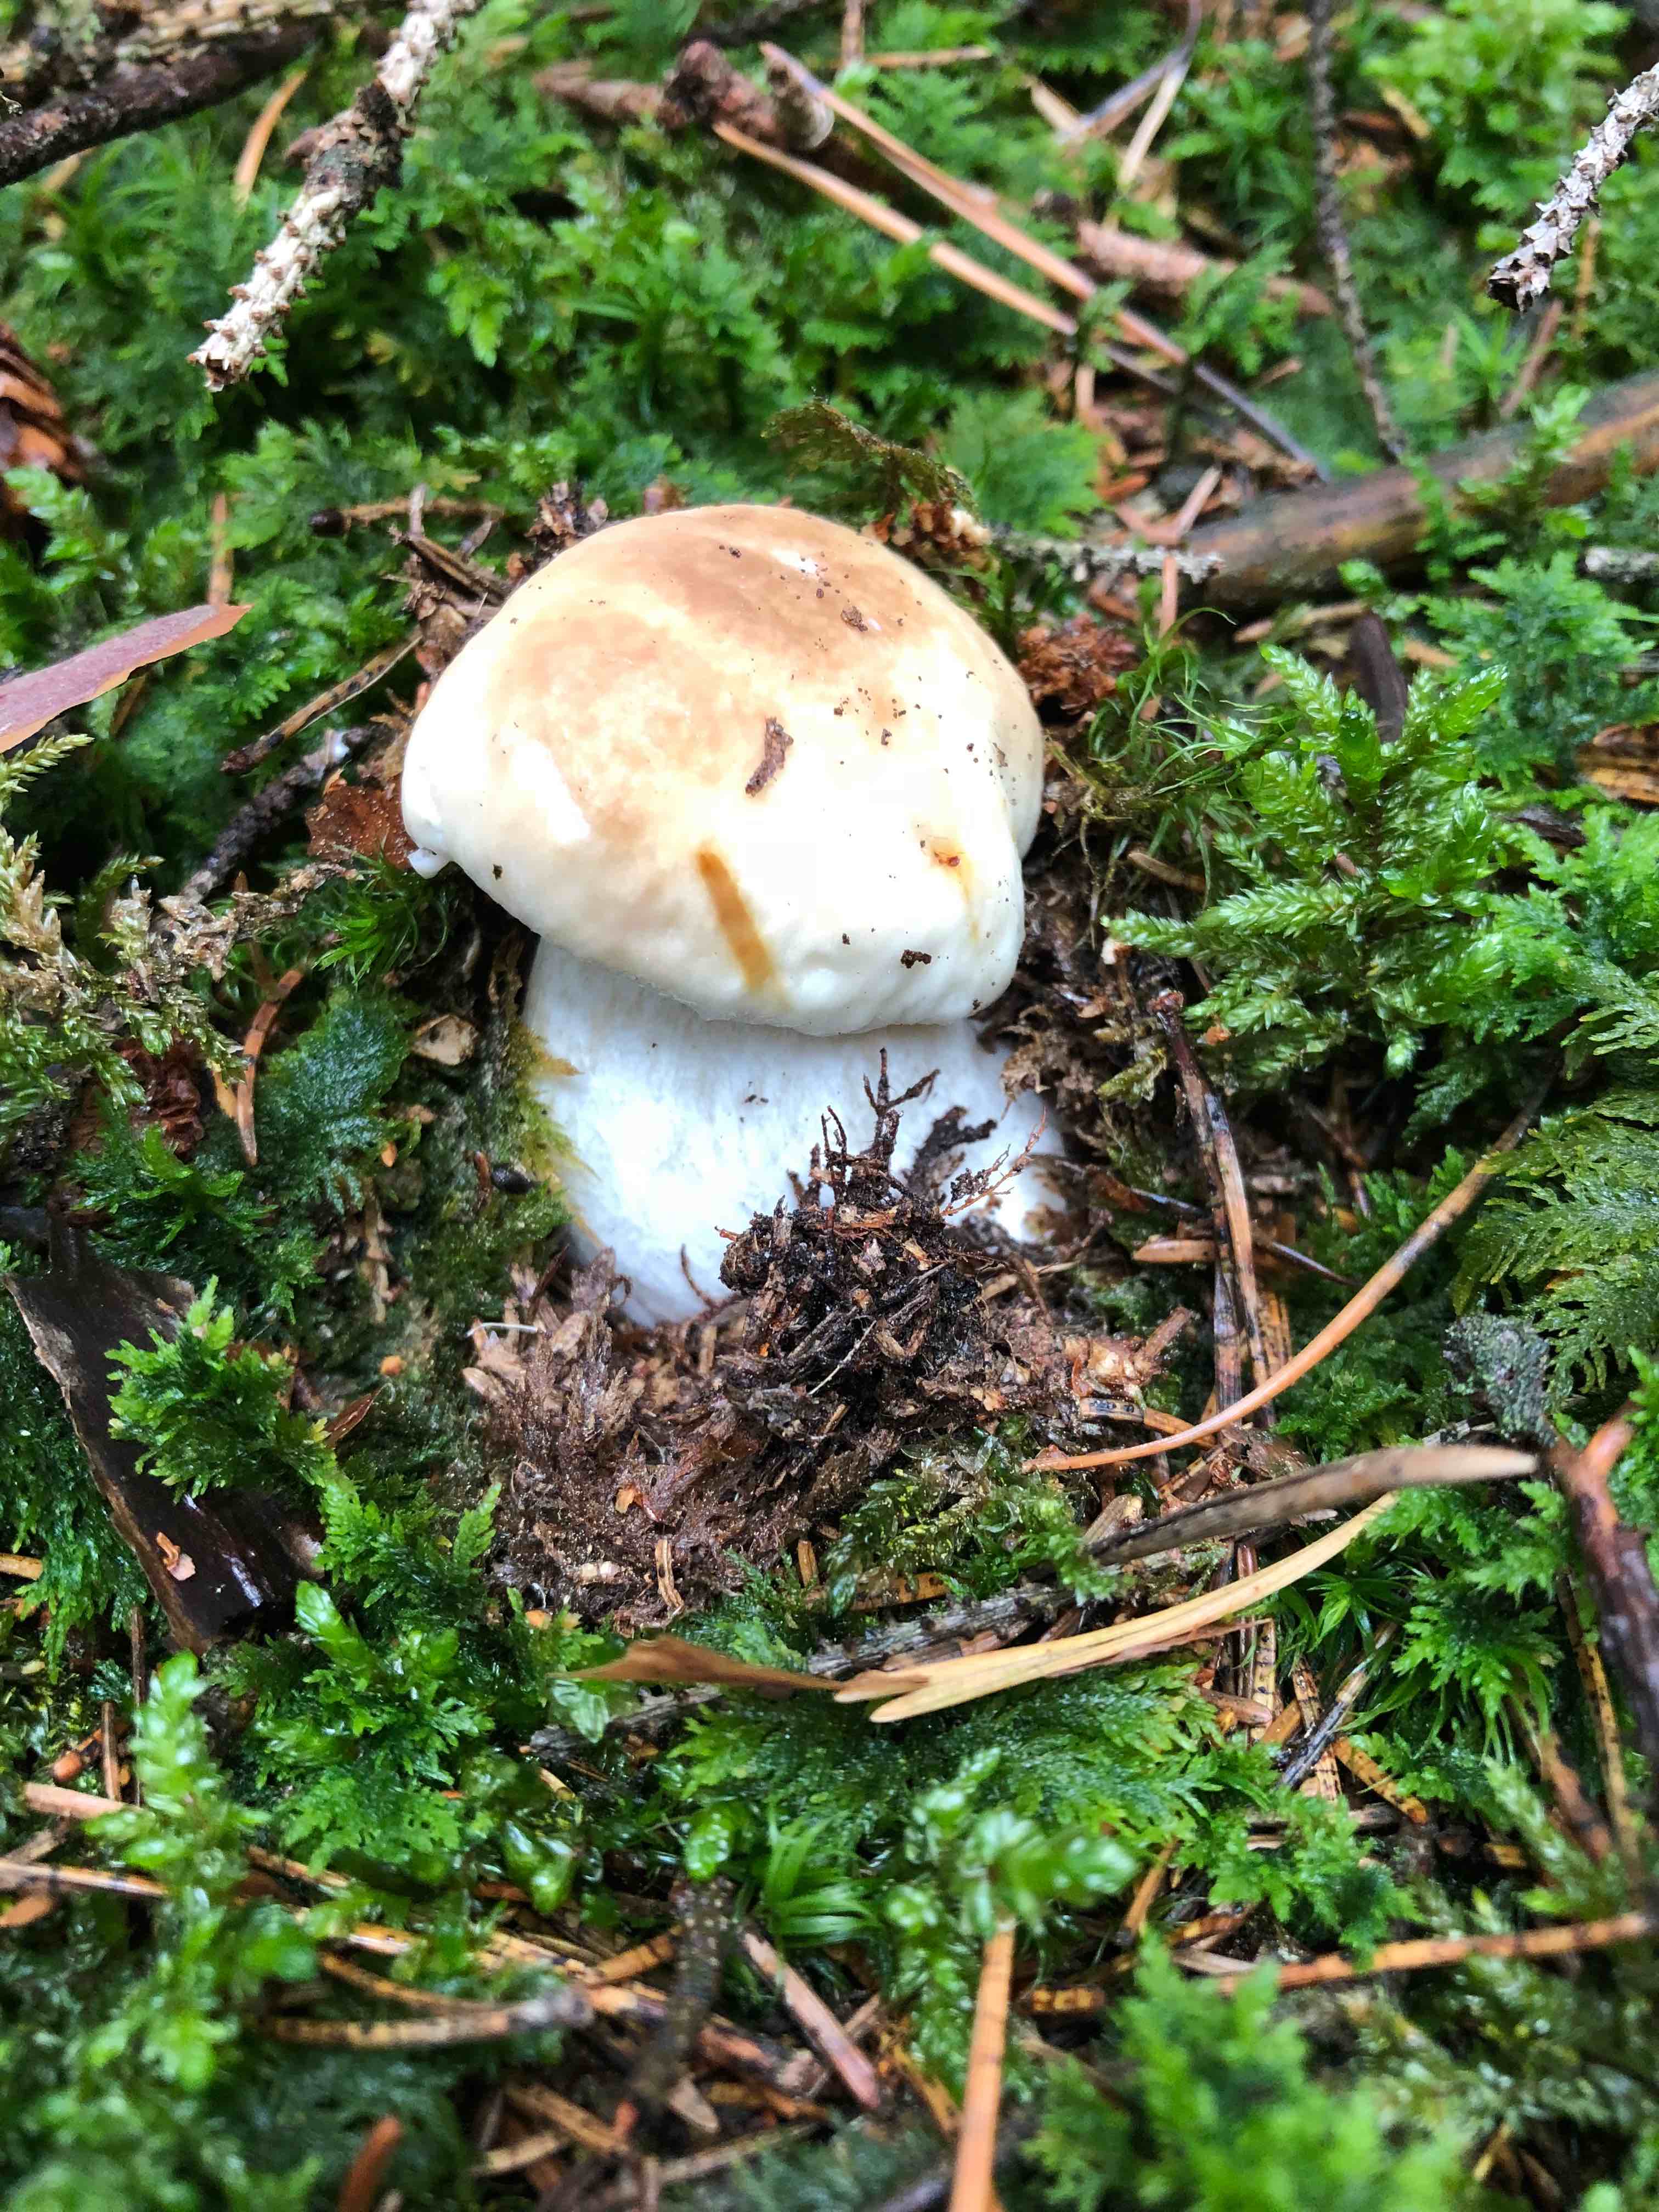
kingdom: Fungi
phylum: Basidiomycota
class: Agaricomycetes
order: Boletales
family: Boletaceae
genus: Boletus
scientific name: Boletus edulis
